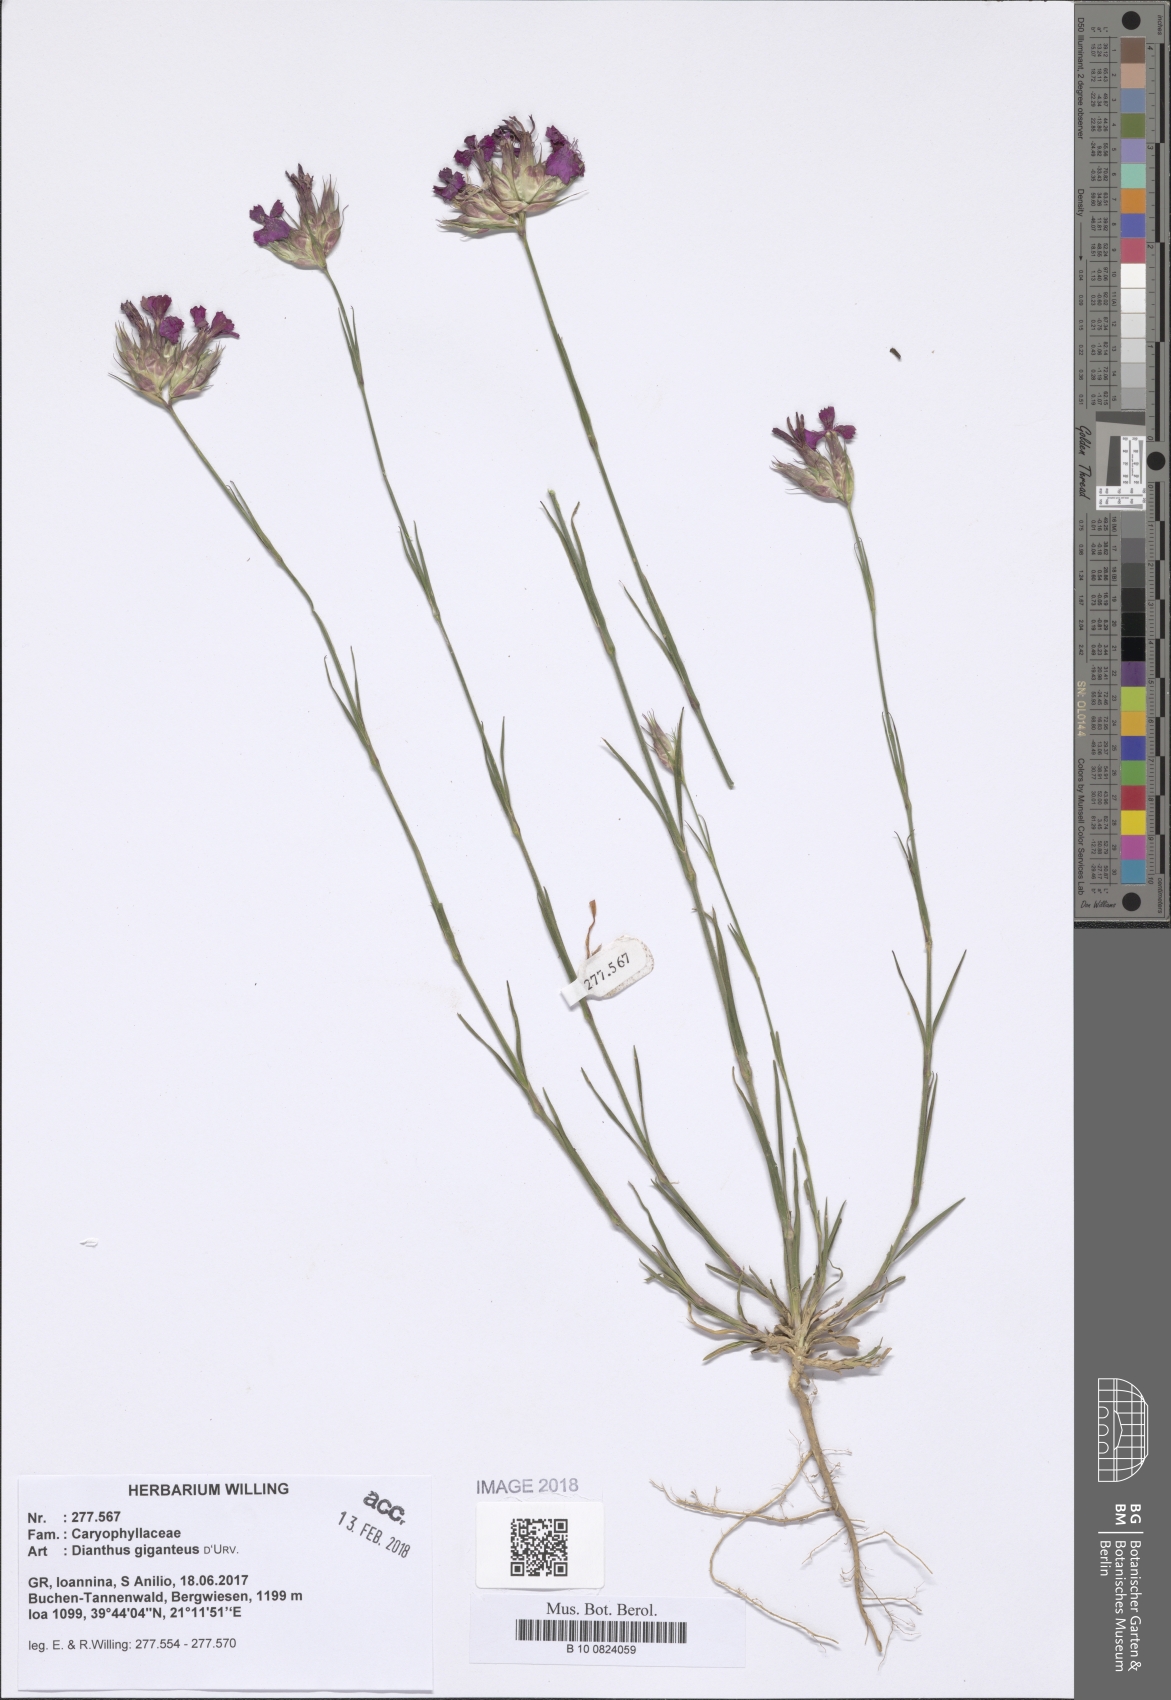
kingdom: Plantae
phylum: Tracheophyta
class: Magnoliopsida
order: Caryophyllales
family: Caryophyllaceae
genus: Dianthus
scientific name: Dianthus giganteus
